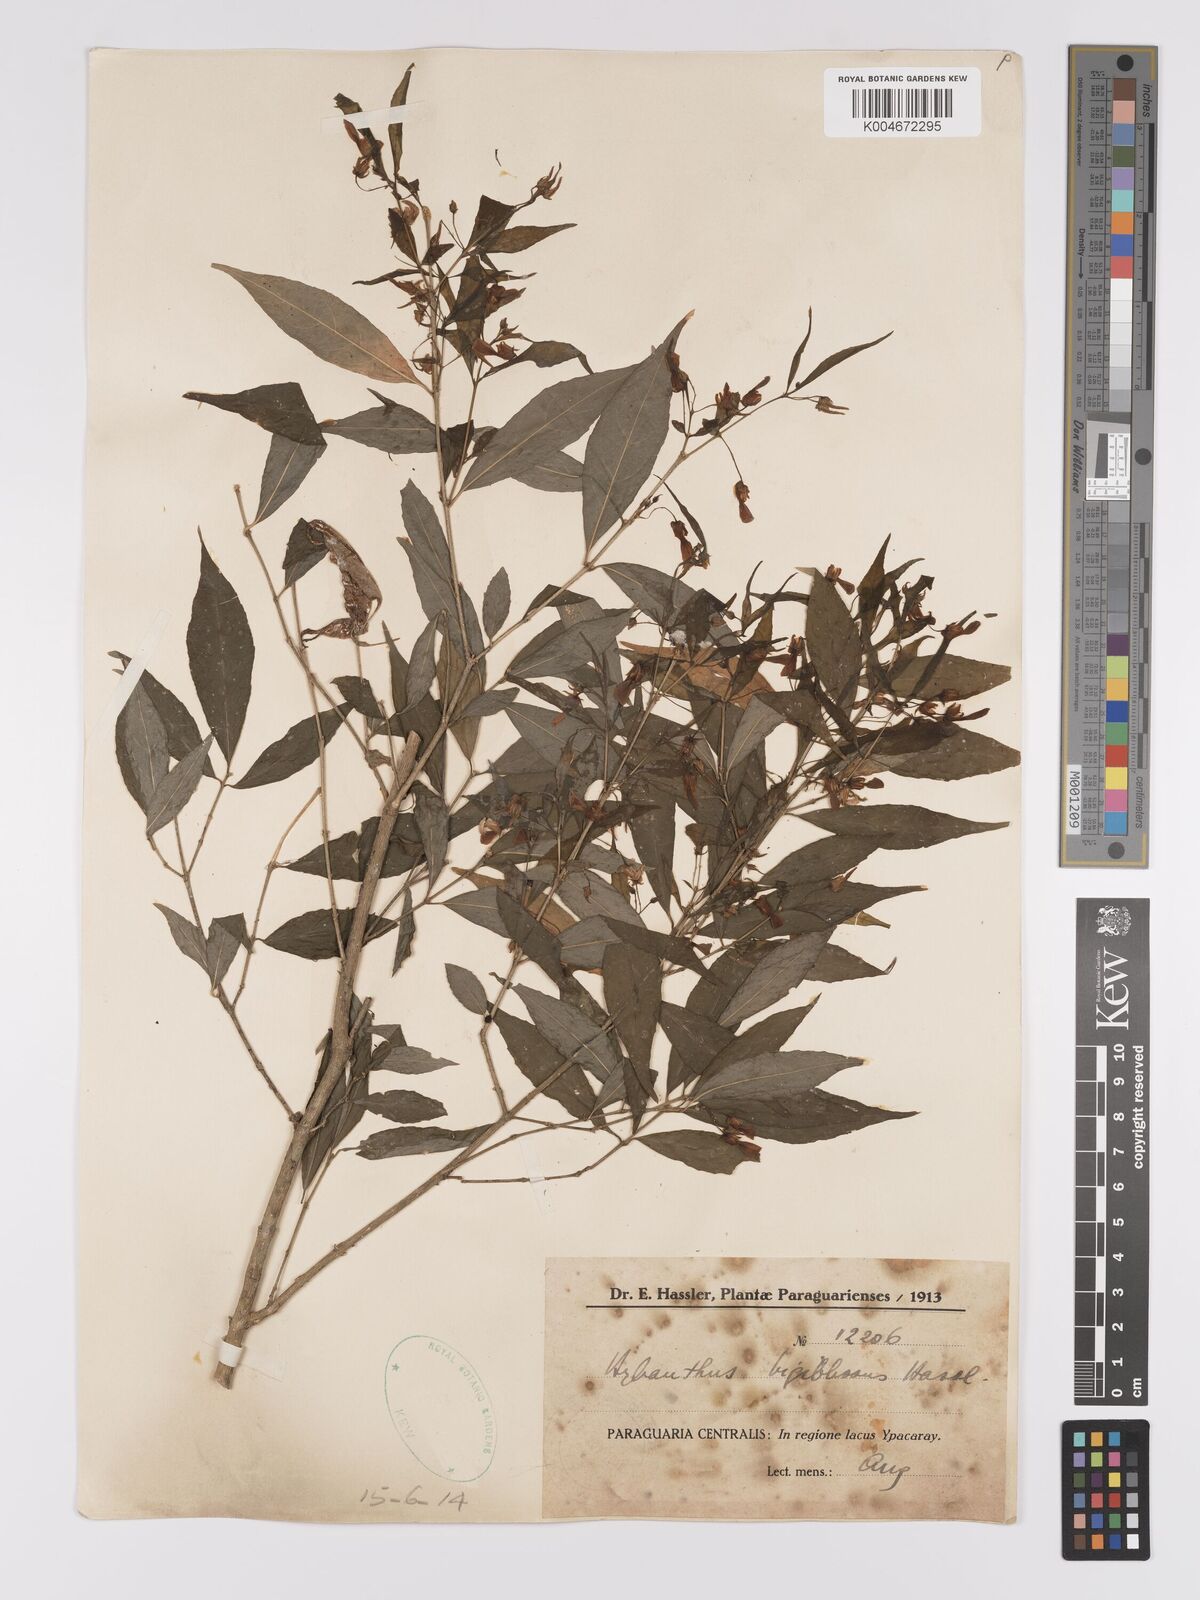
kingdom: Plantae
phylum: Tracheophyta
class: Magnoliopsida
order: Malpighiales
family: Violaceae
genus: Pombalia
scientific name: Pombalia bigibbosa
